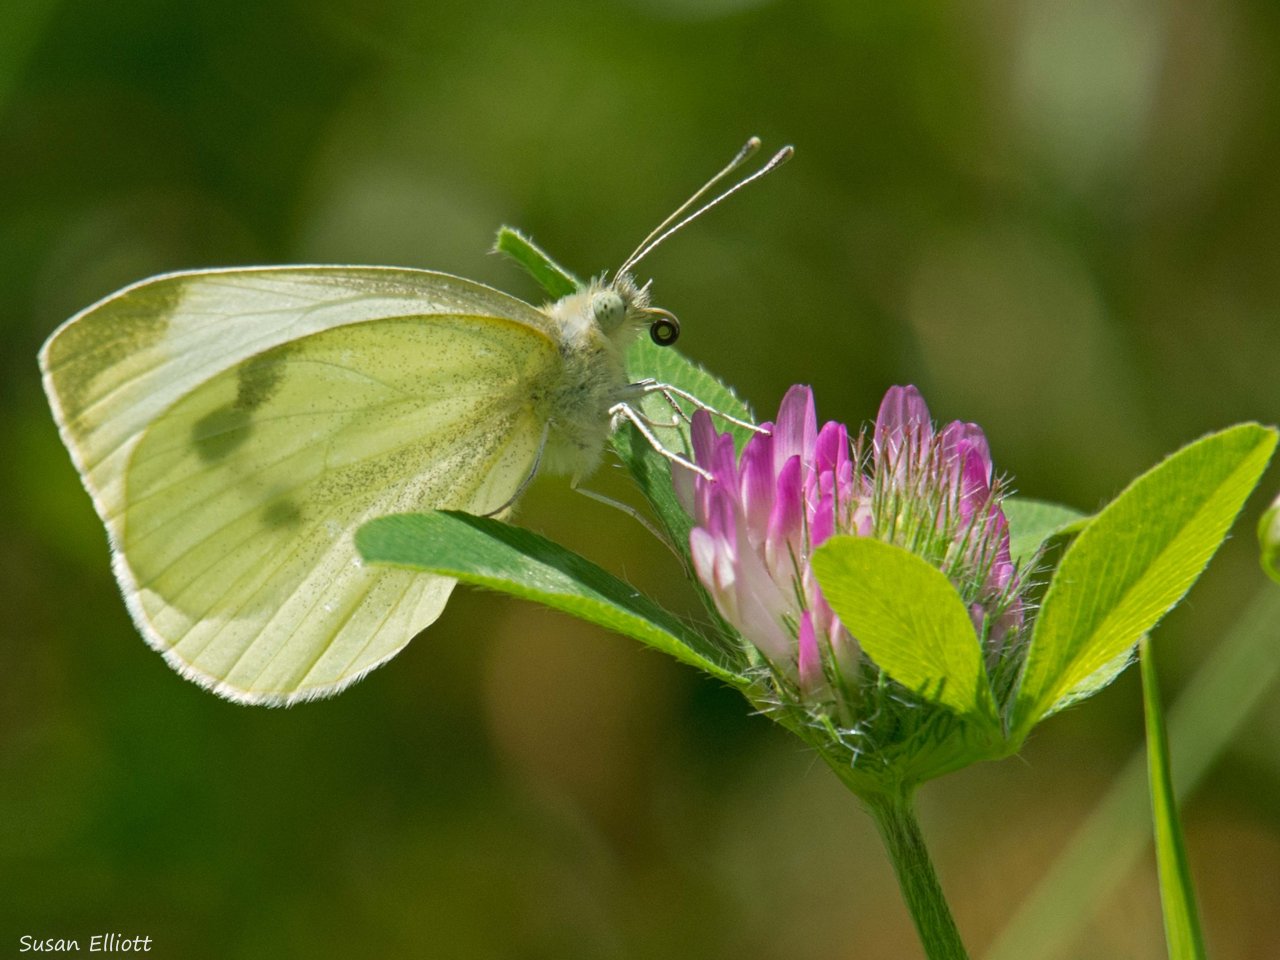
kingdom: Animalia
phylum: Arthropoda
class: Insecta
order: Lepidoptera
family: Pieridae
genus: Pieris
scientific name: Pieris rapae
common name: Cabbage White
